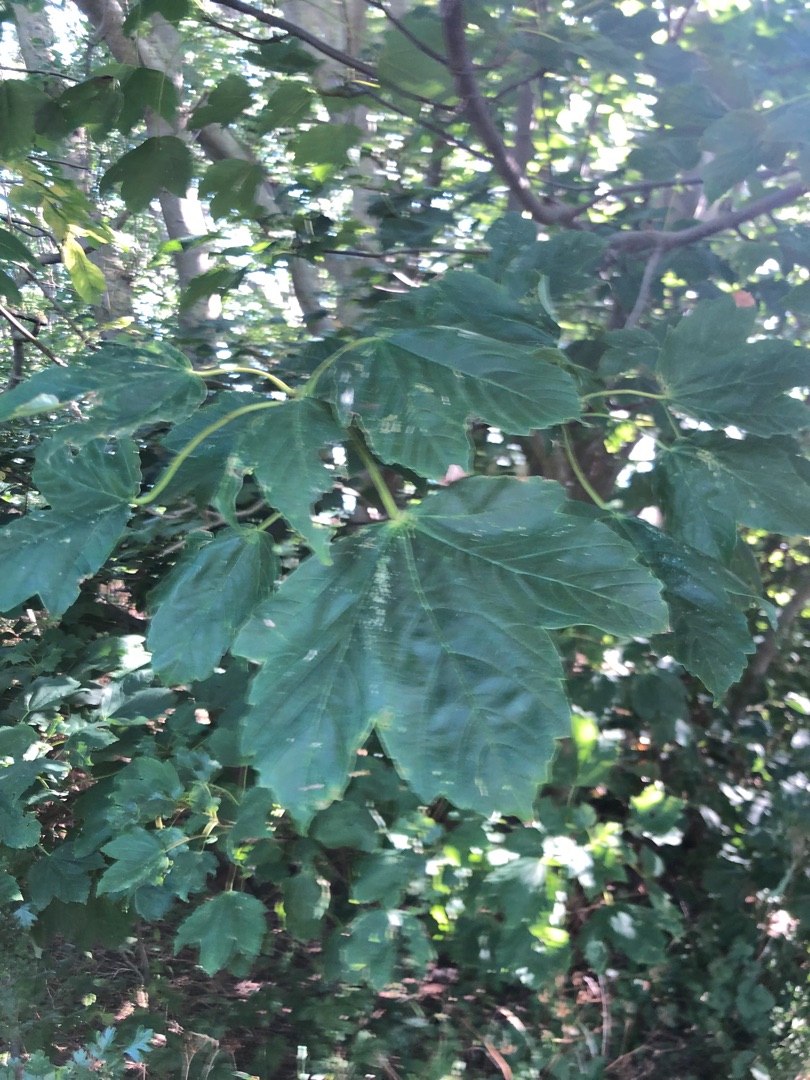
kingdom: Plantae
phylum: Tracheophyta
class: Magnoliopsida
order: Sapindales
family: Sapindaceae
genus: Acer
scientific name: Acer pseudoplatanus
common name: Ahorn
